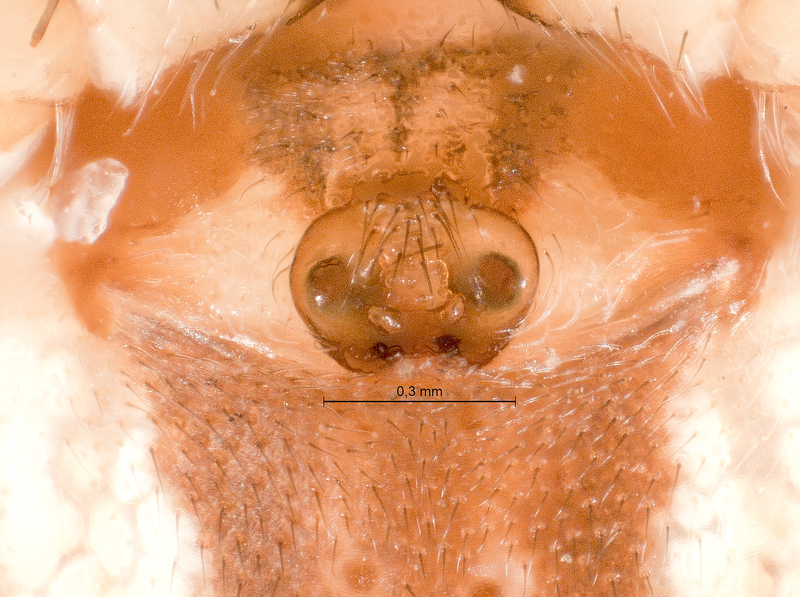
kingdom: Animalia
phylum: Arthropoda
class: Arachnida
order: Araneae
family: Araneidae
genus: Cercidia
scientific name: Cercidia prominens
